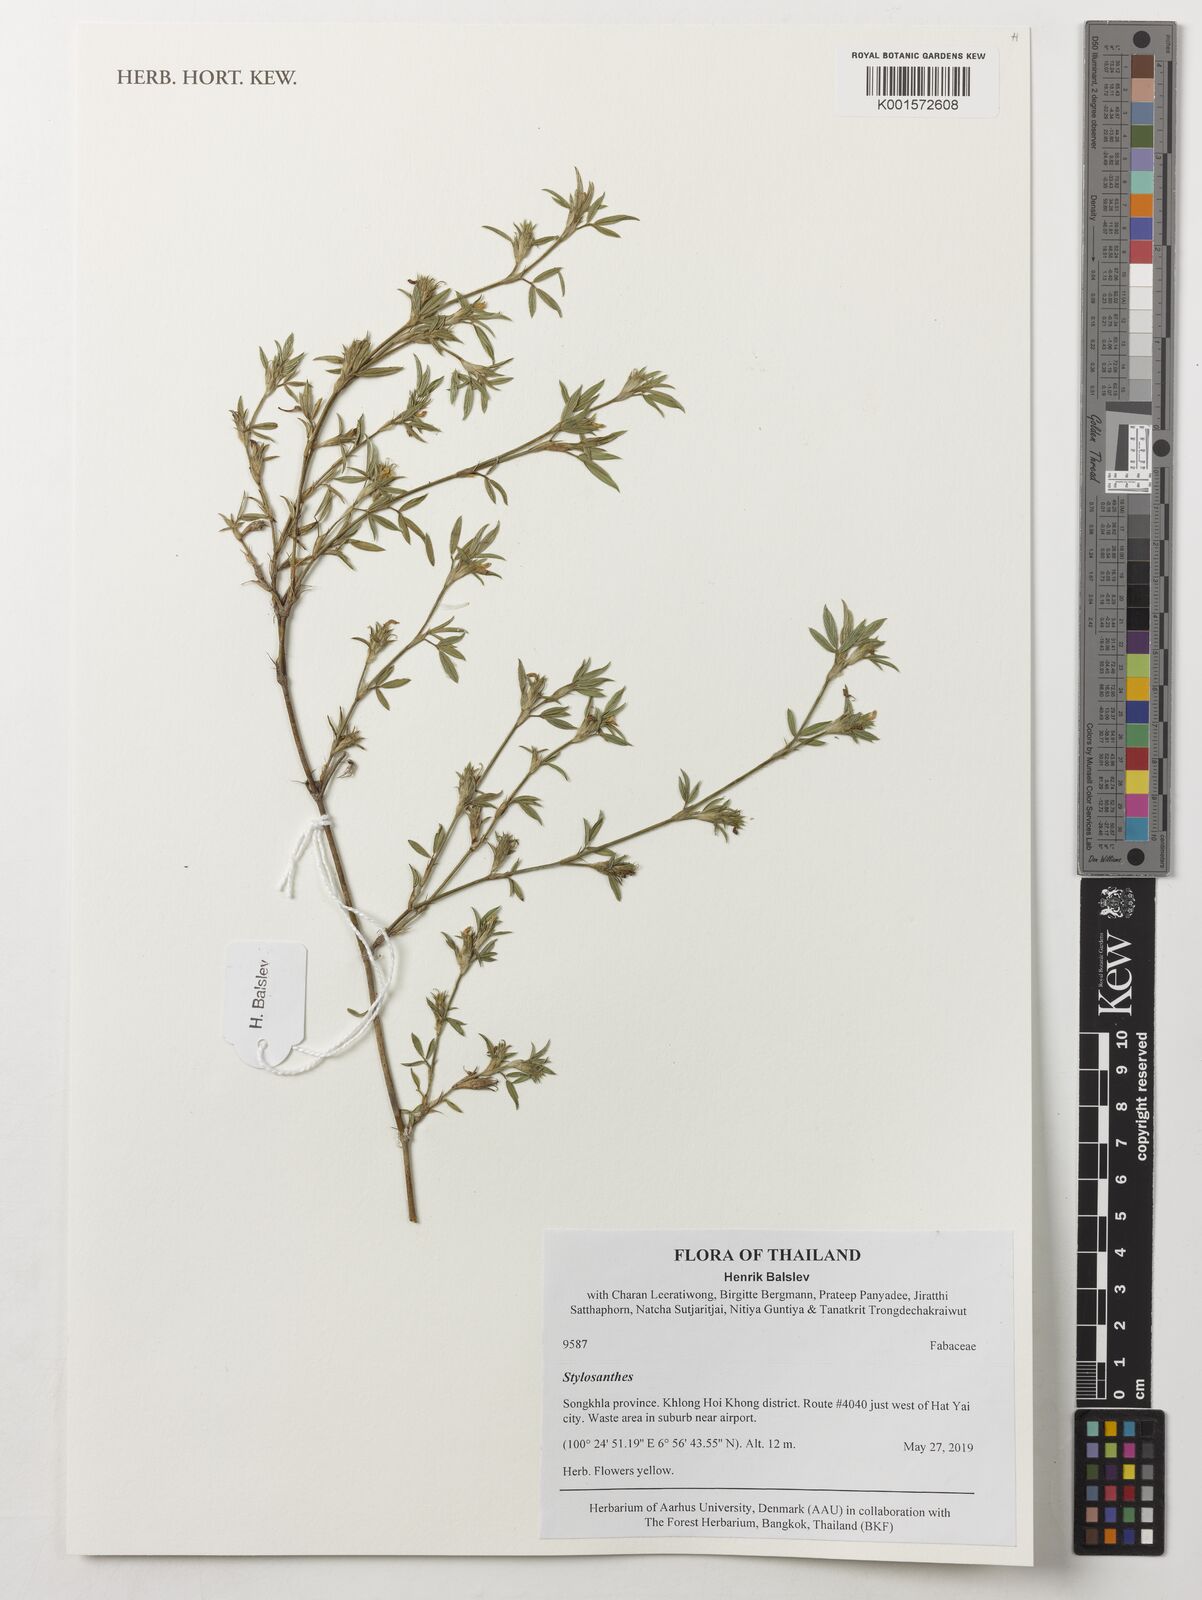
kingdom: Plantae
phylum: Tracheophyta
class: Magnoliopsida
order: Fabales
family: Fabaceae
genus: Stylosanthes
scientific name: Stylosanthes
